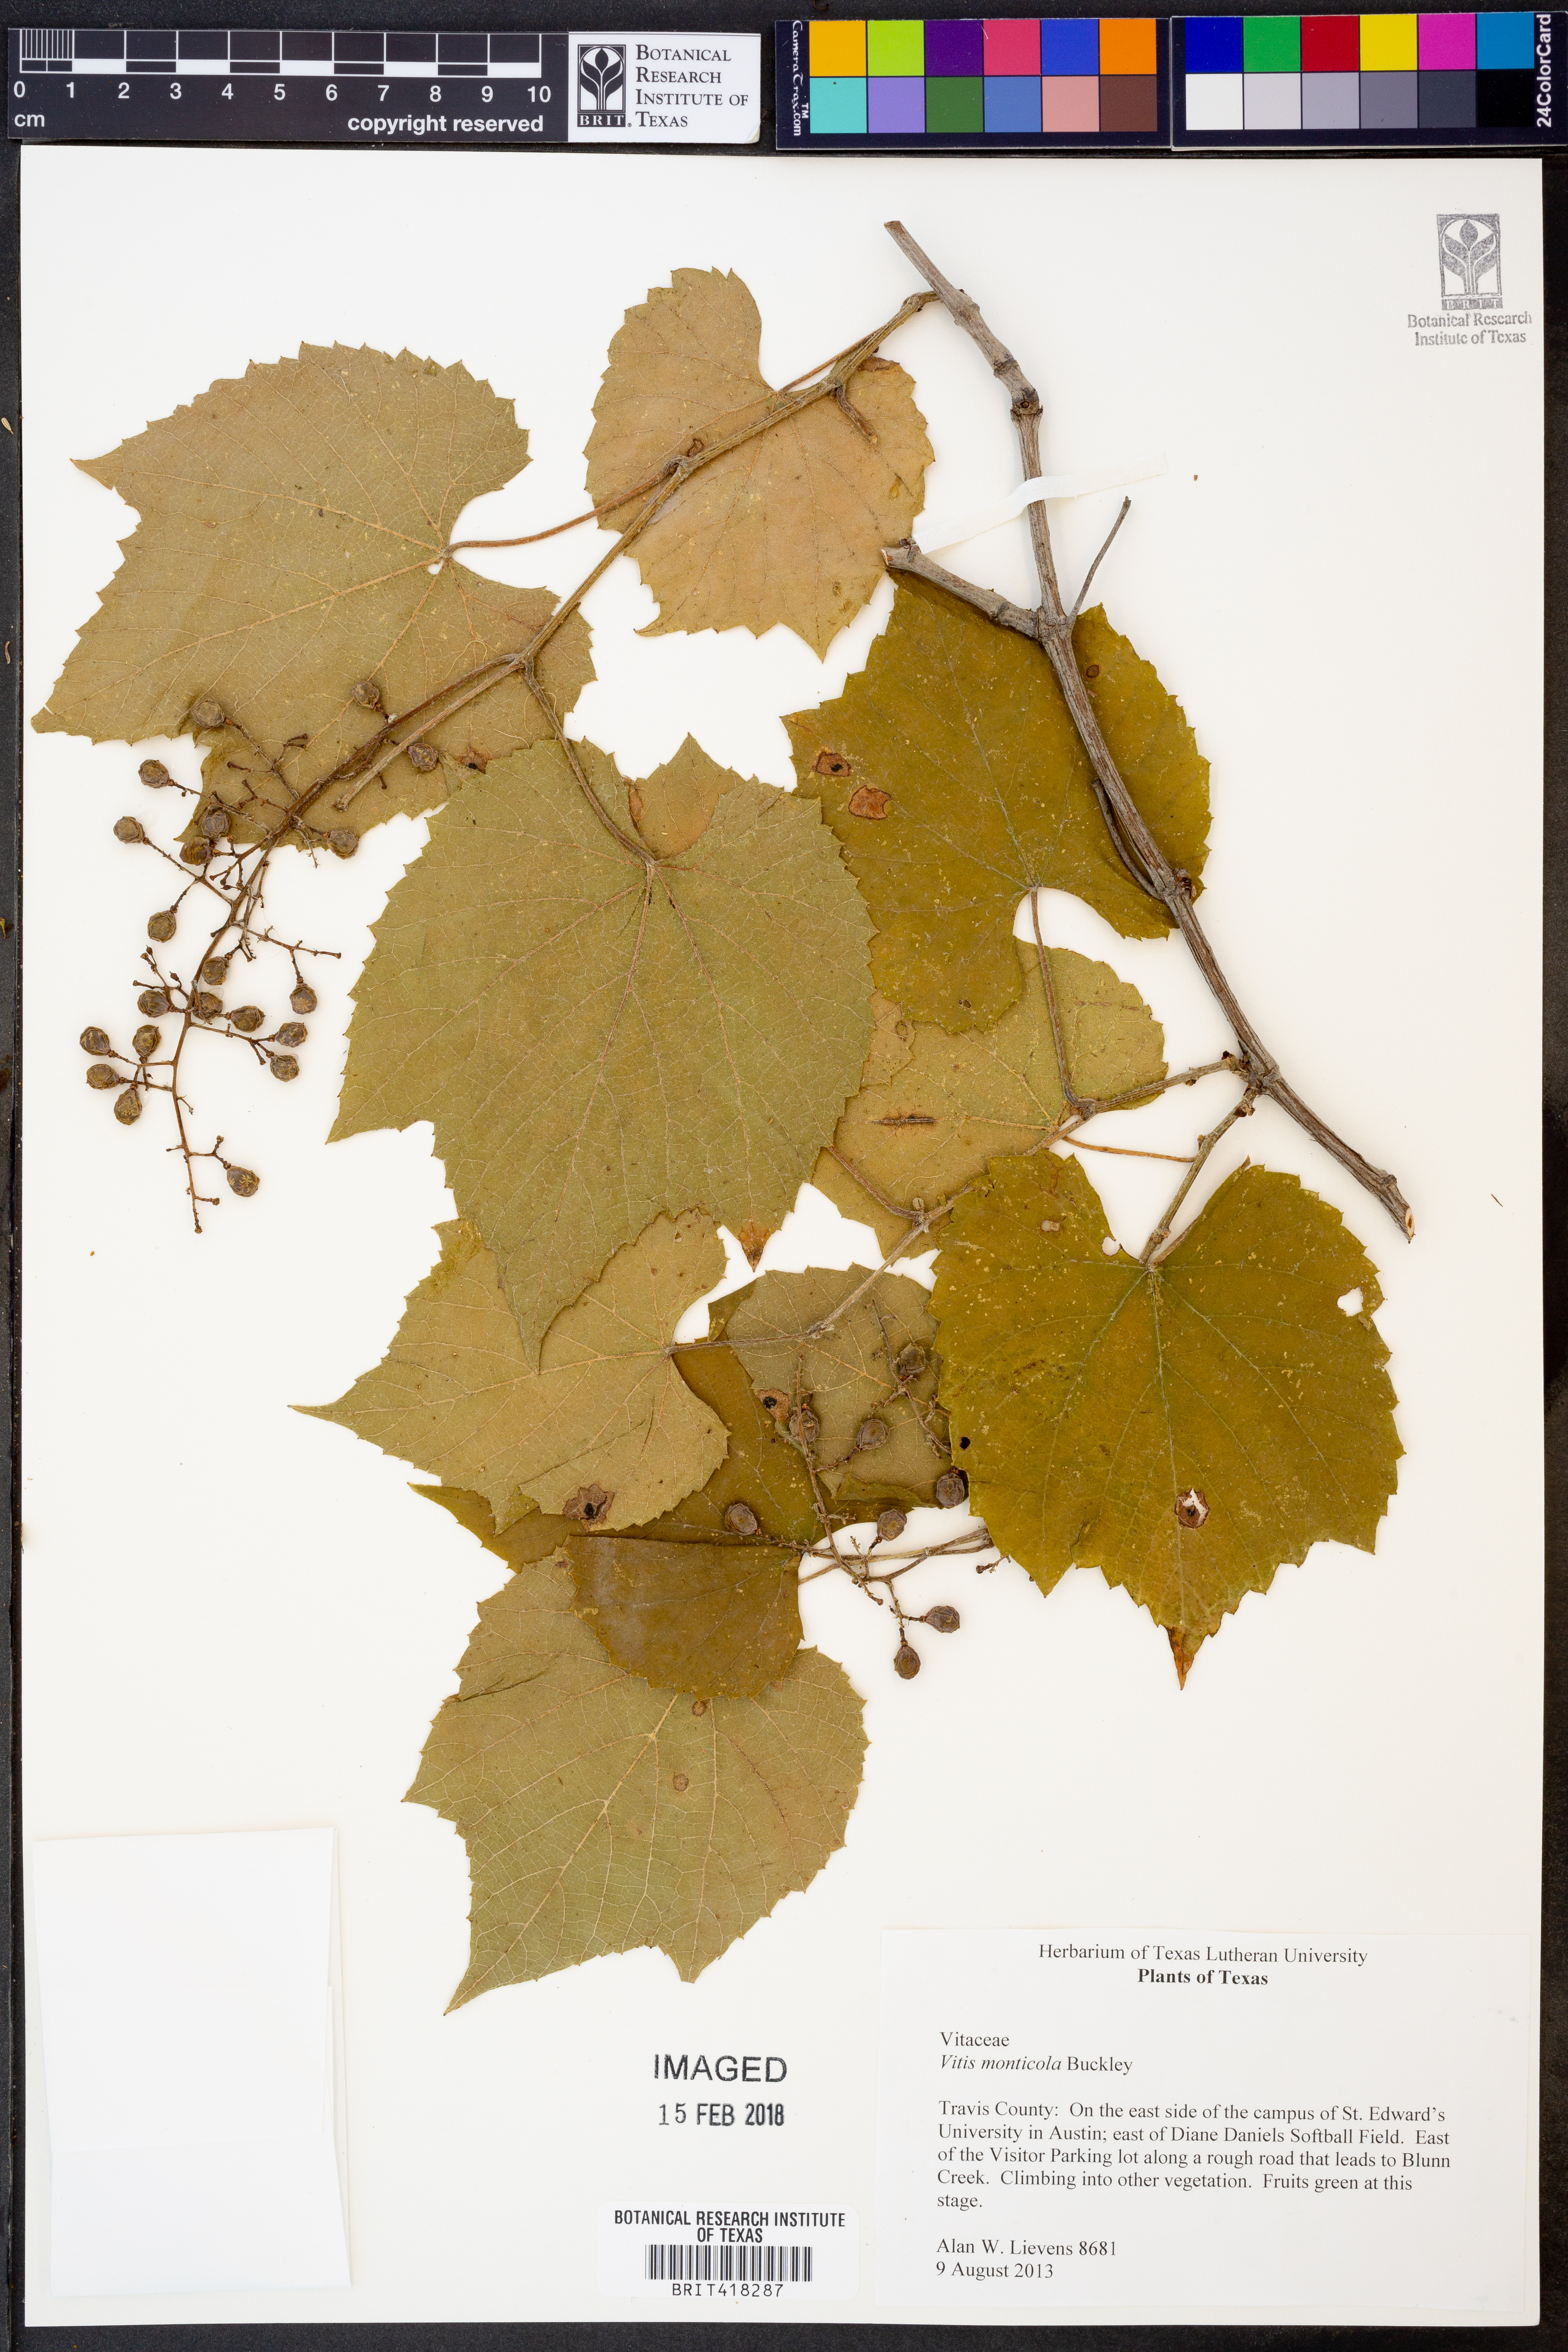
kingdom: Plantae
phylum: Tracheophyta
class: Magnoliopsida
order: Vitales
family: Vitaceae
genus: Vitis
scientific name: Vitis monticola
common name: Mountain grape
